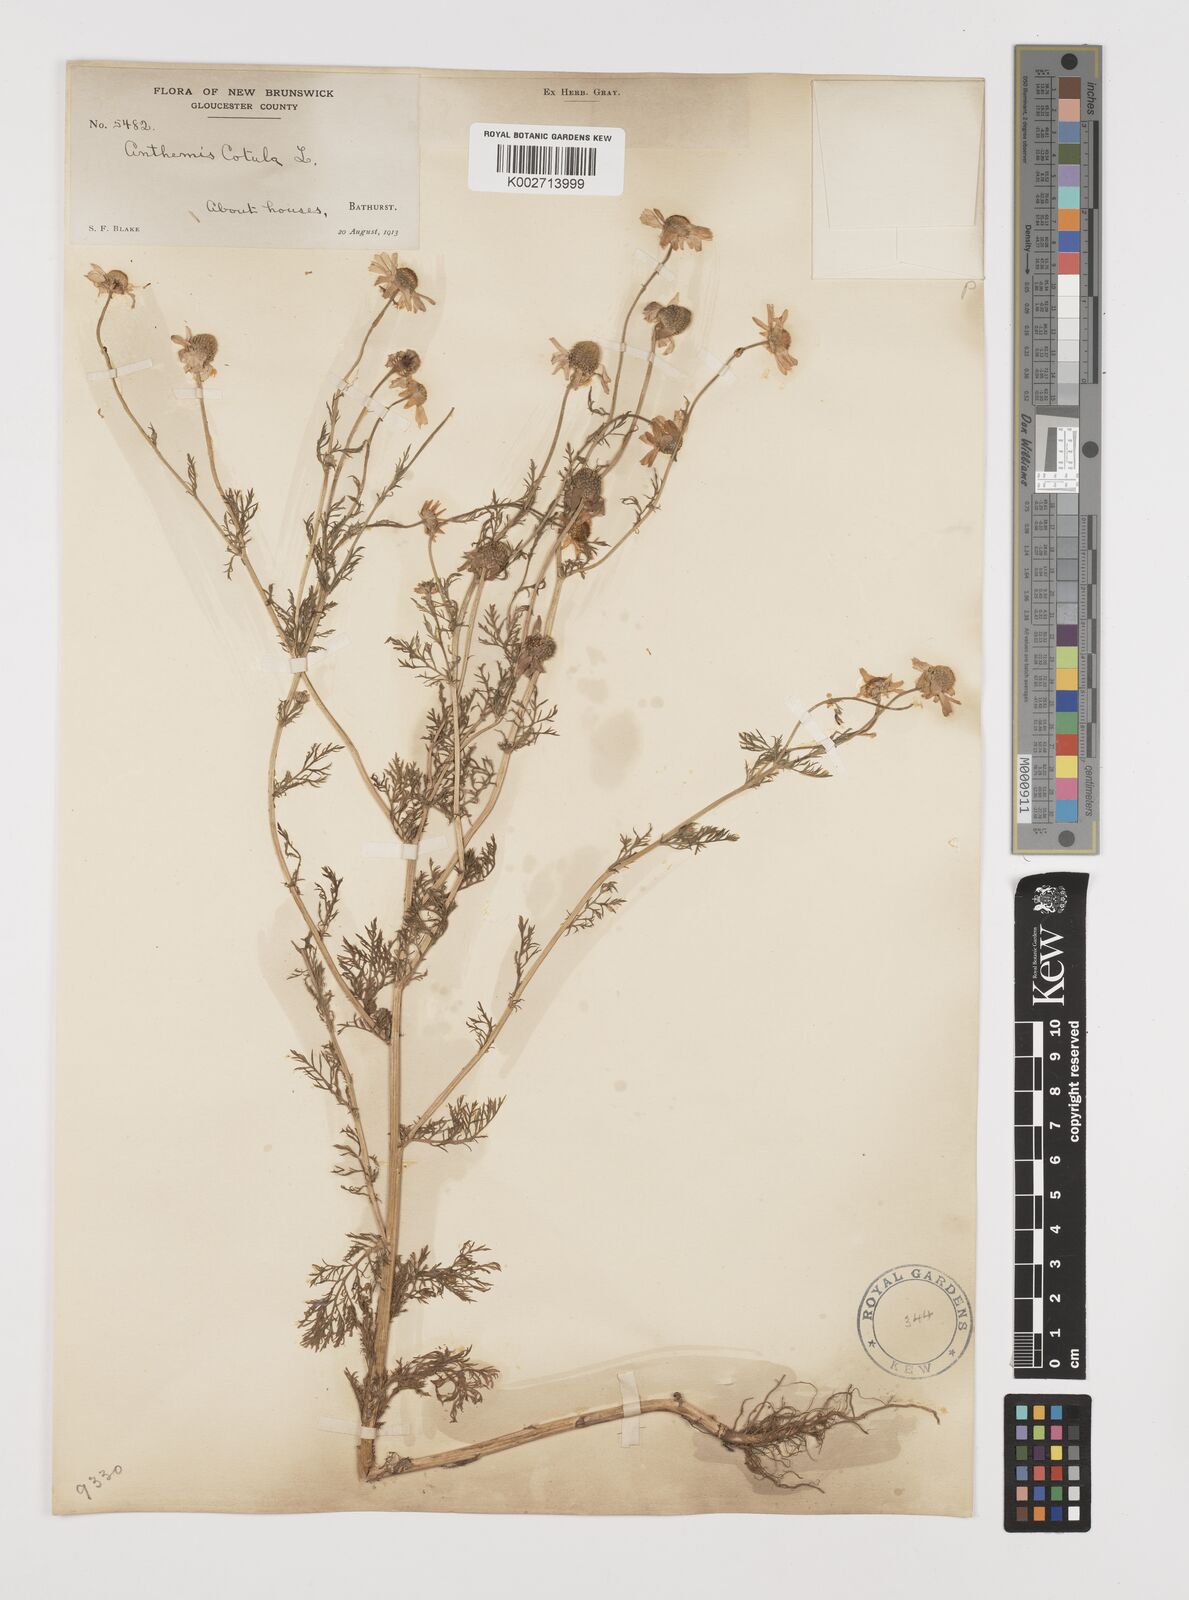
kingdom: Plantae
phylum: Tracheophyta
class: Magnoliopsida
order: Asterales
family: Asteraceae
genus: Anthemis
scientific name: Anthemis cotula
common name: Stinking chamomile
